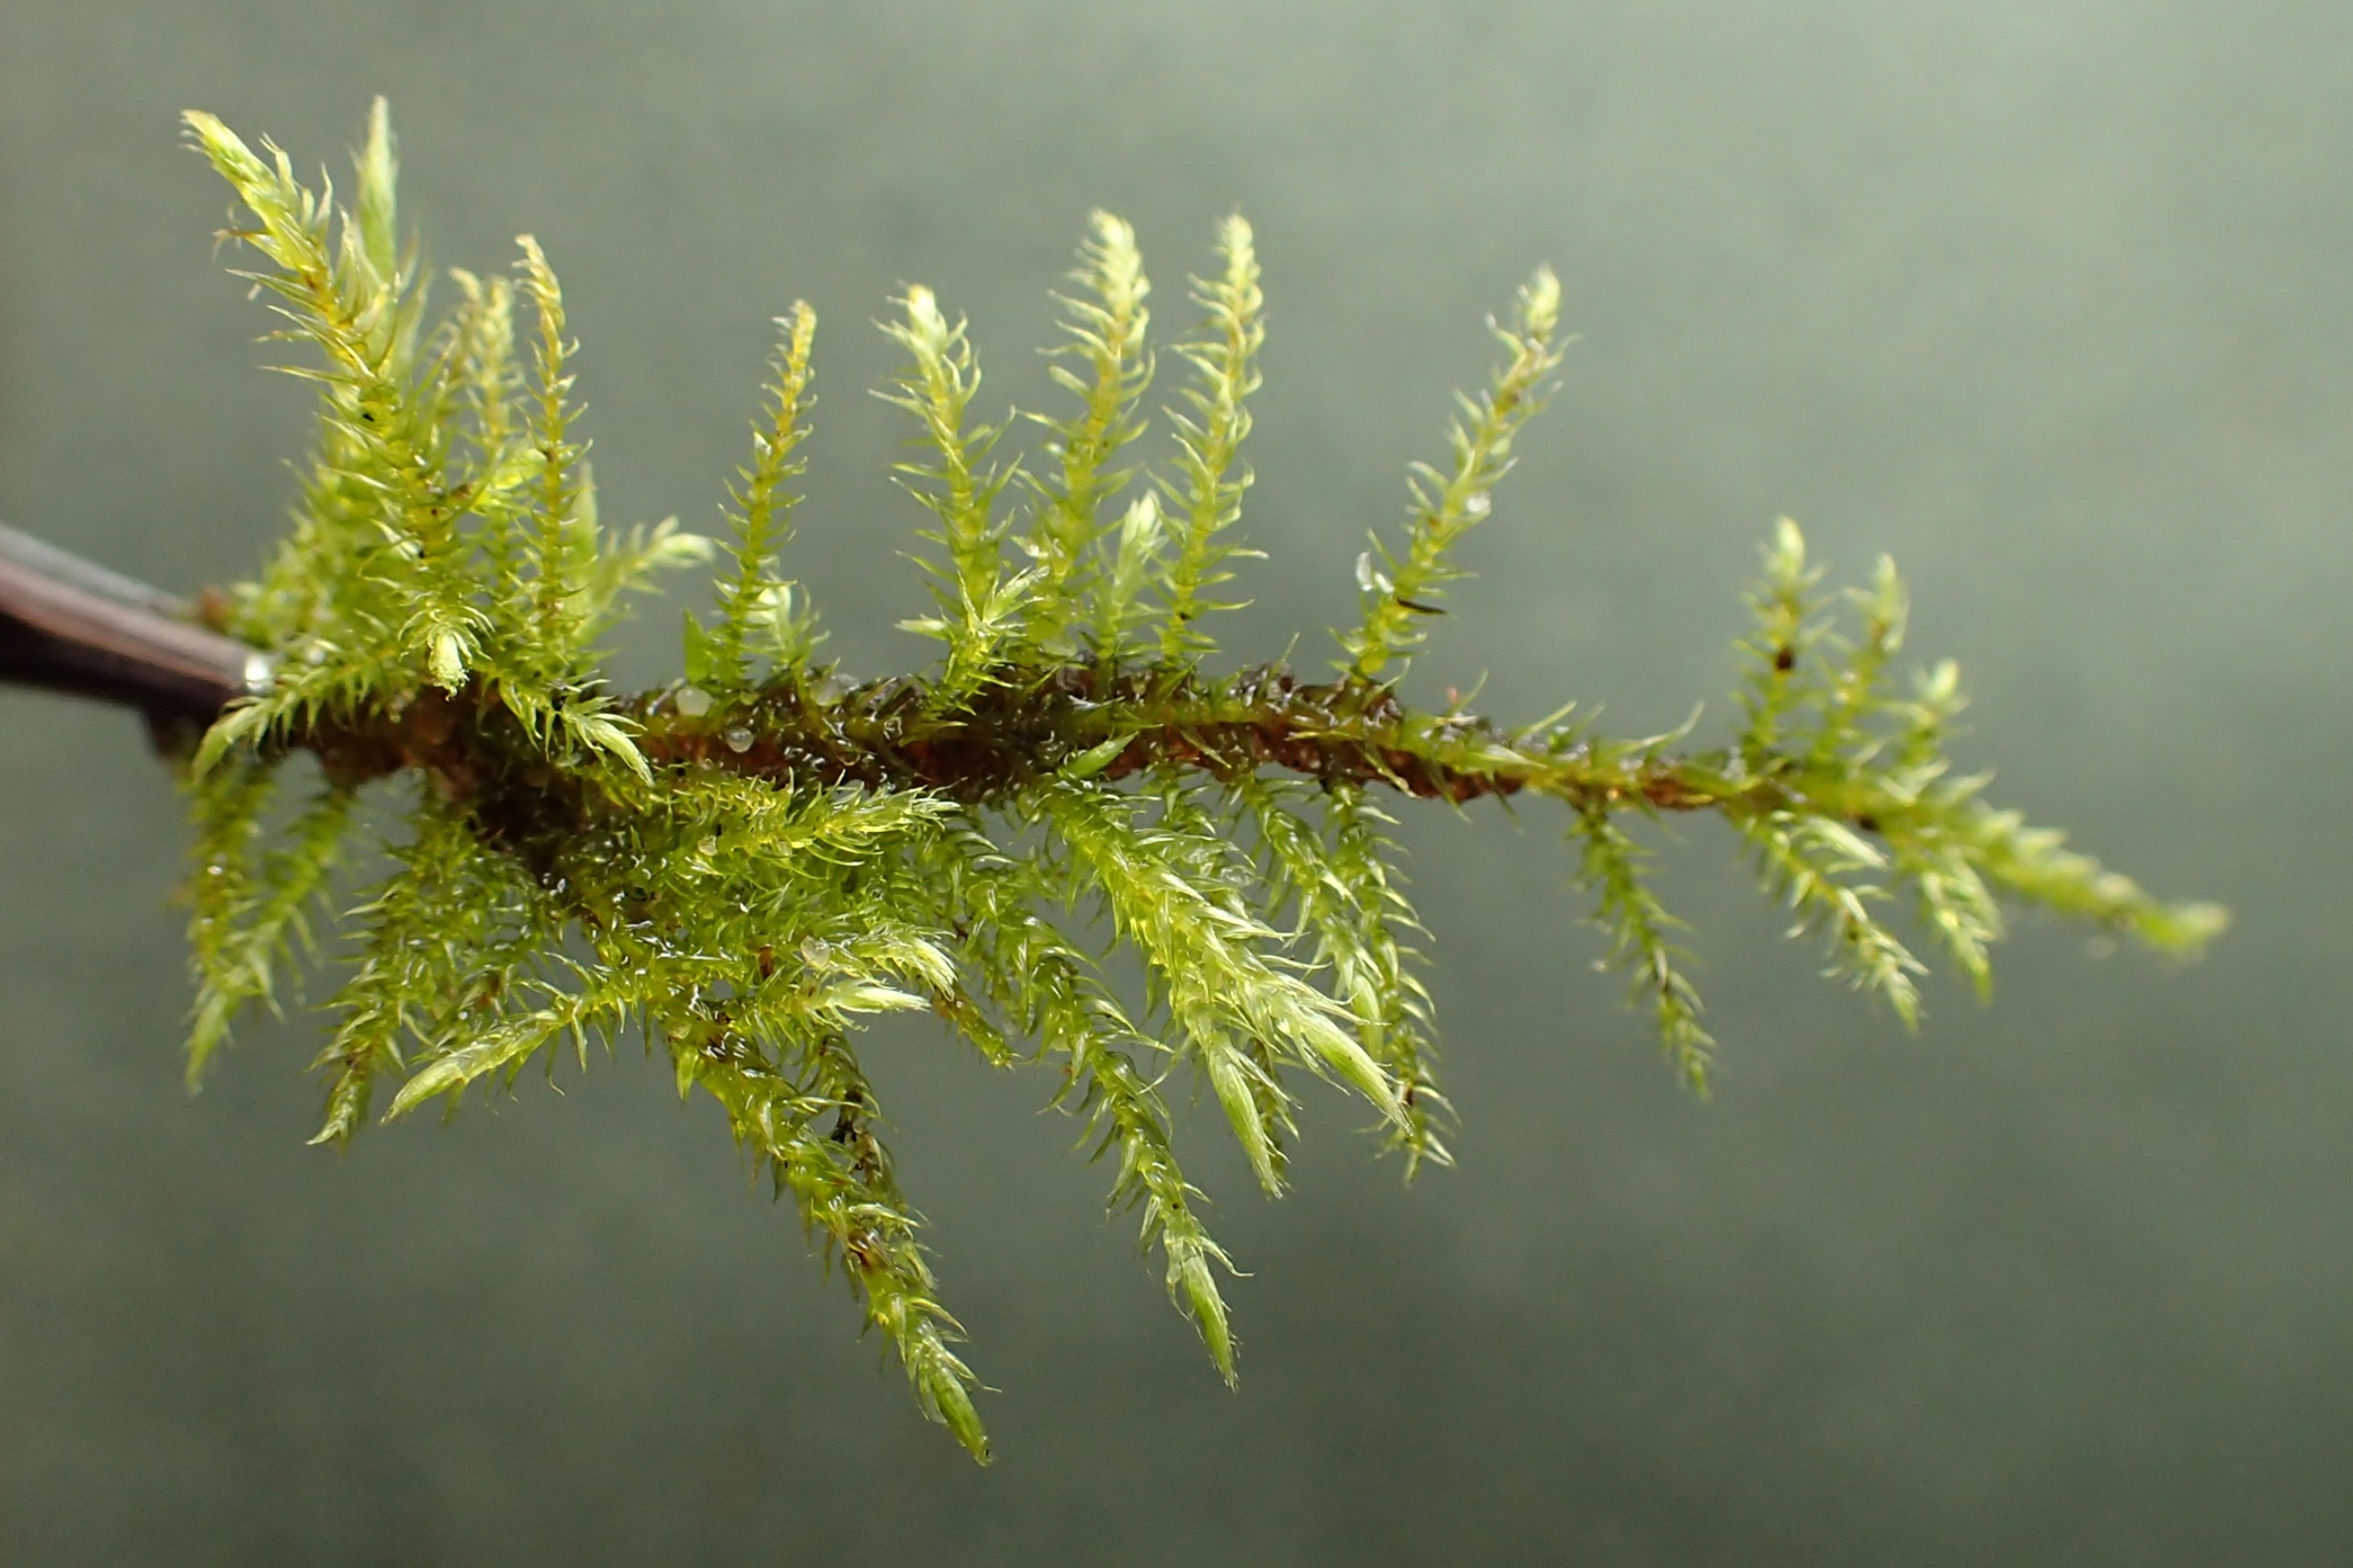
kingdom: Plantae
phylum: Bryophyta
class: Bryopsida
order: Hypnales
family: Amblystegiaceae
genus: Cratoneuron
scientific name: Cratoneuron filicinum
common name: Grøn eremitmos
